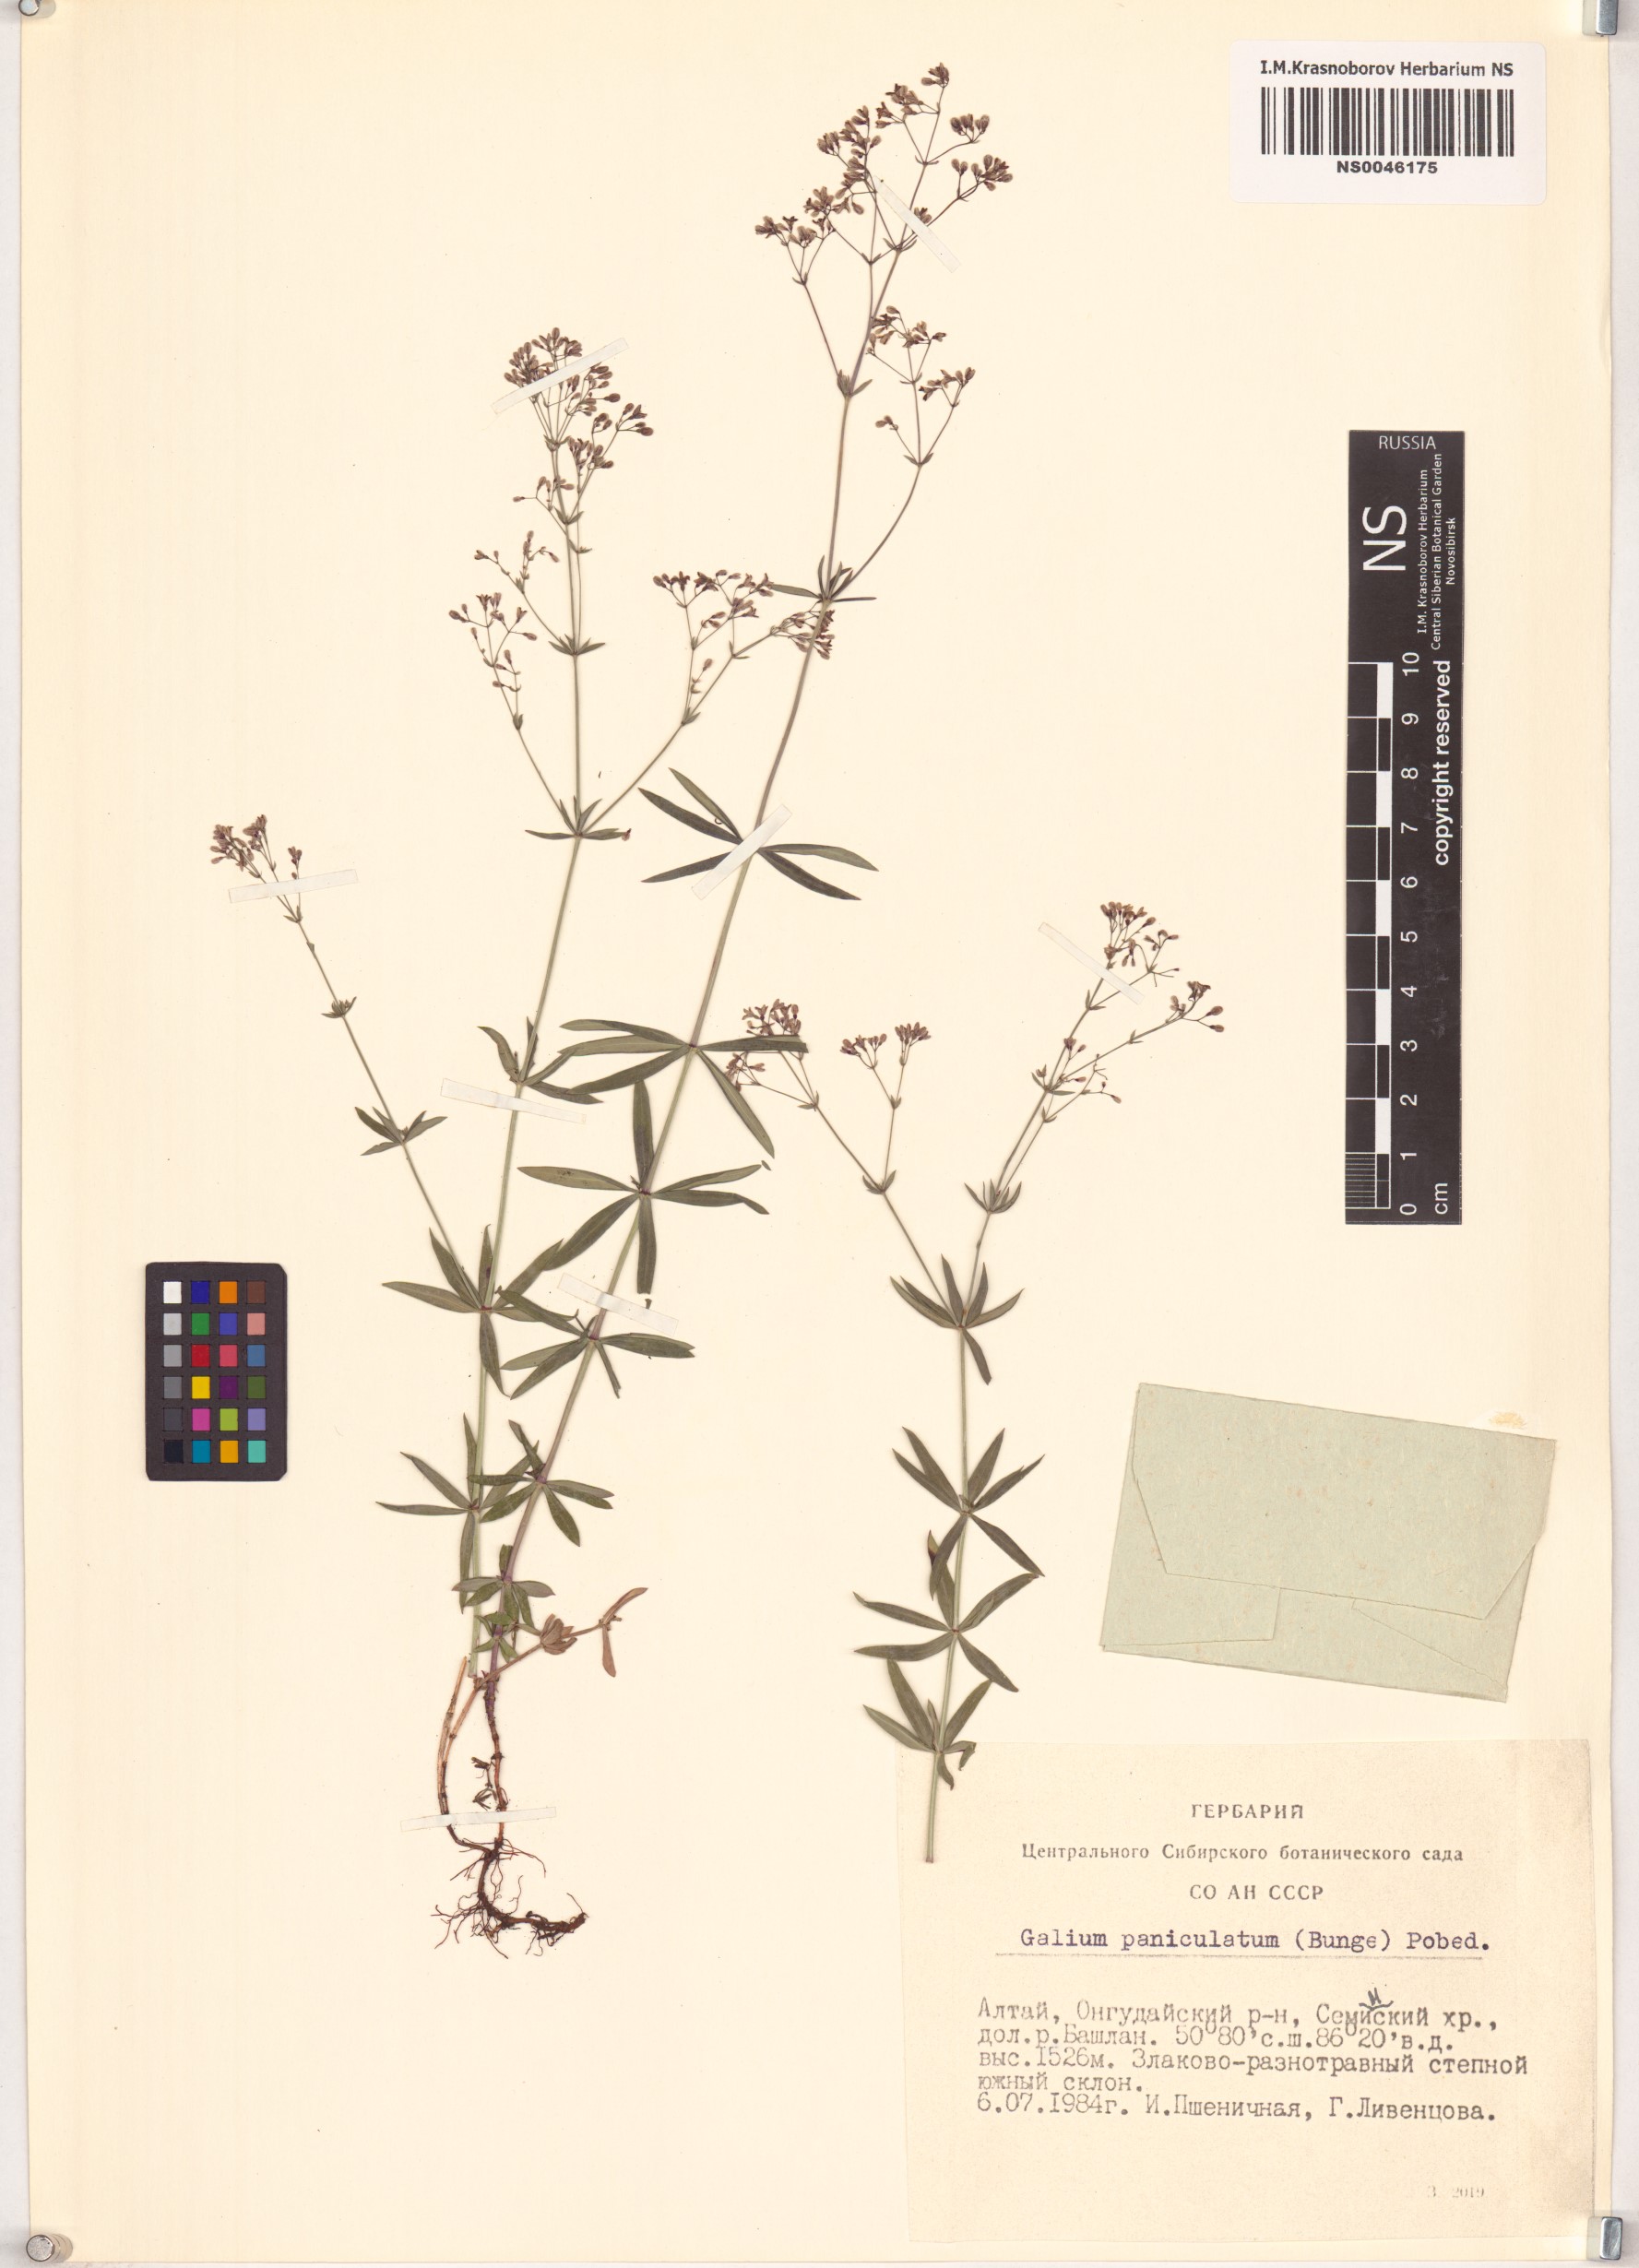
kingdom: Plantae
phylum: Tracheophyta
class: Magnoliopsida
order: Gentianales
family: Rubiaceae
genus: Galium
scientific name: Galium paniculatum
